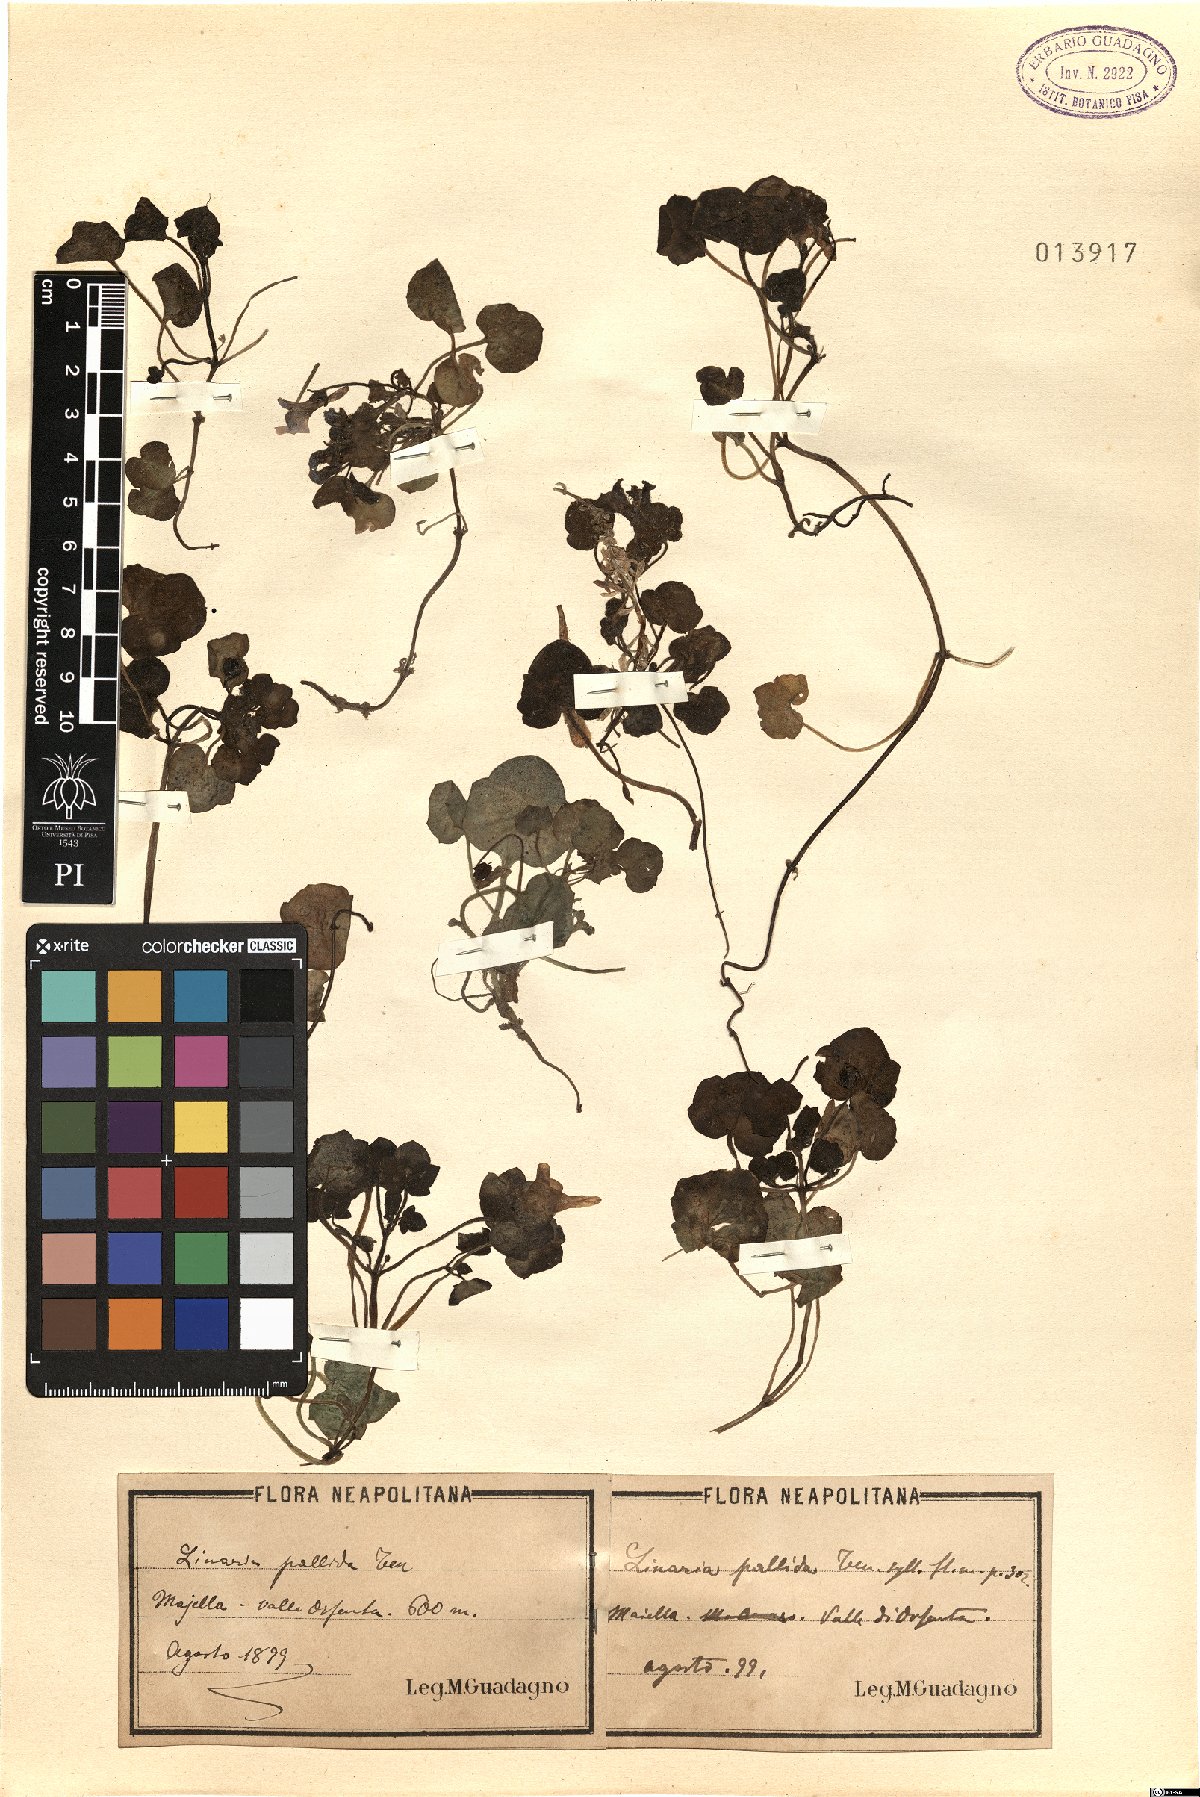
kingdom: Plantae
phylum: Tracheophyta
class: Magnoliopsida
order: Lamiales
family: Plantaginaceae
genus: Cymbalaria
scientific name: Cymbalaria pallida
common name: Italian toadflax
